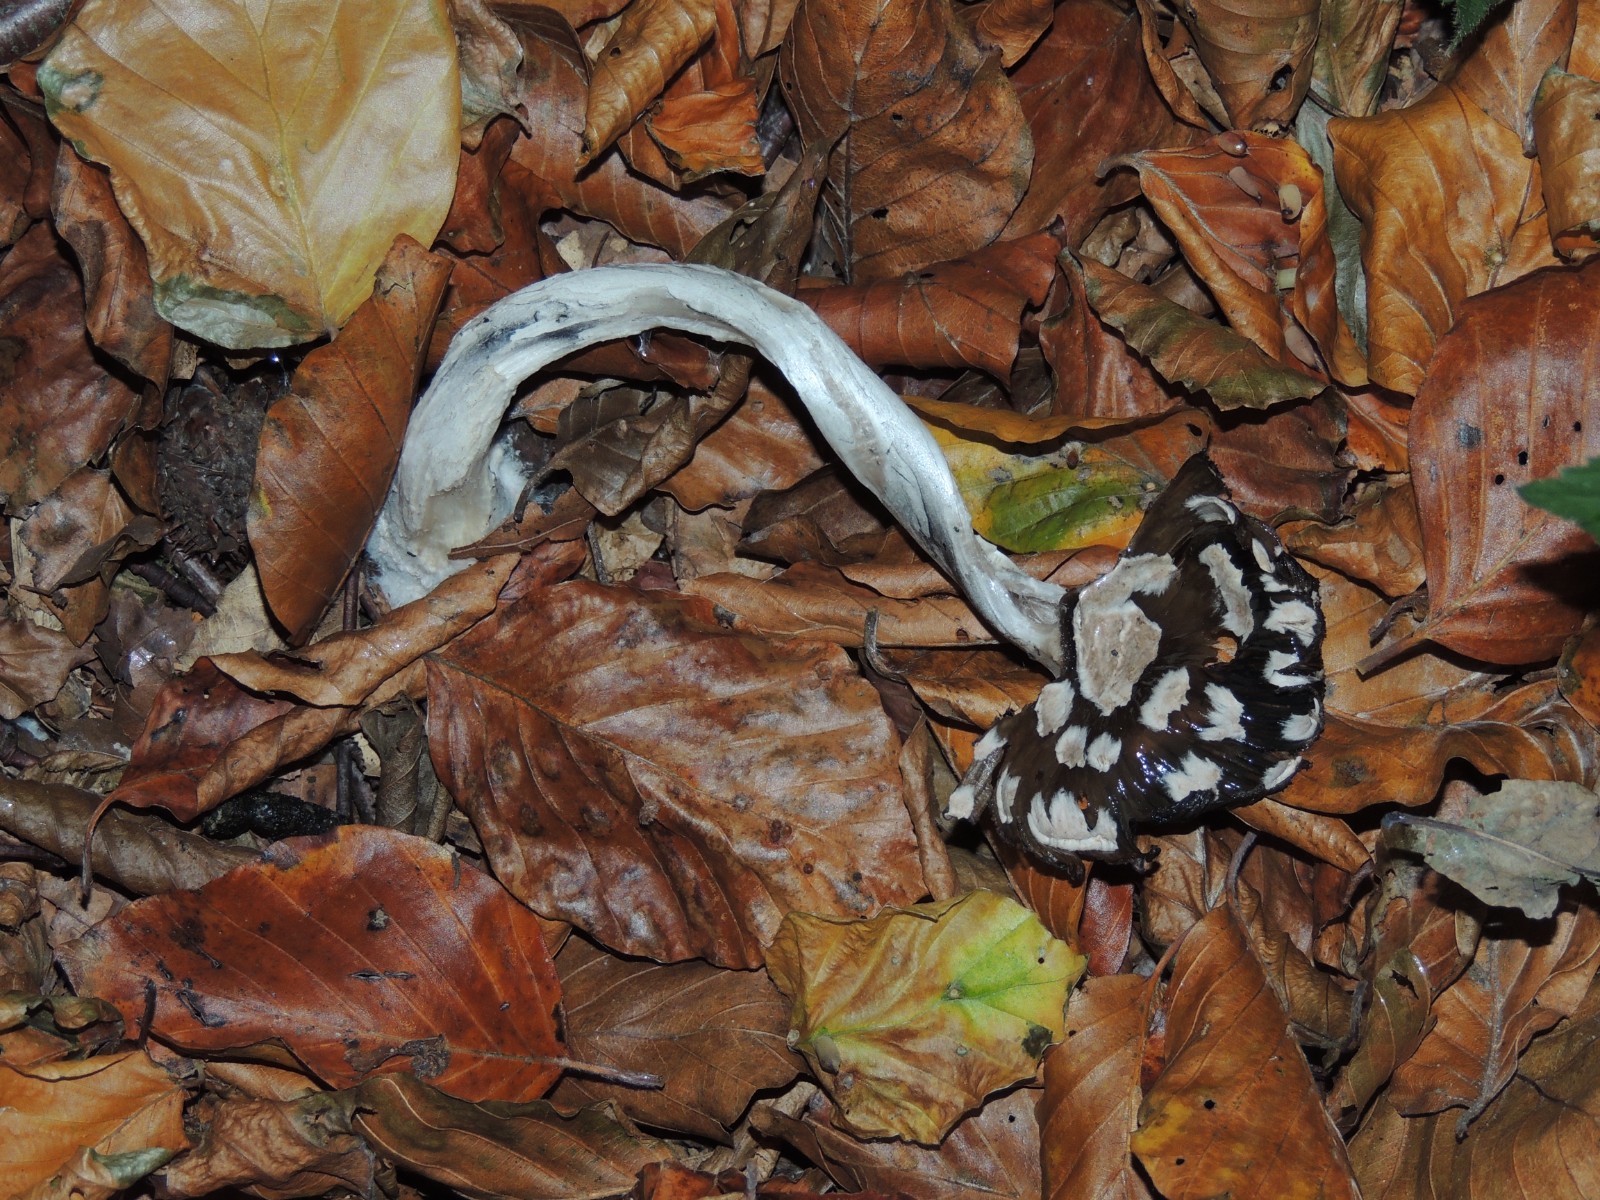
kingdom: Fungi
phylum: Basidiomycota
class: Agaricomycetes
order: Agaricales
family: Psathyrellaceae
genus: Coprinopsis
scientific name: Coprinopsis picacea
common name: skade-blækhat
